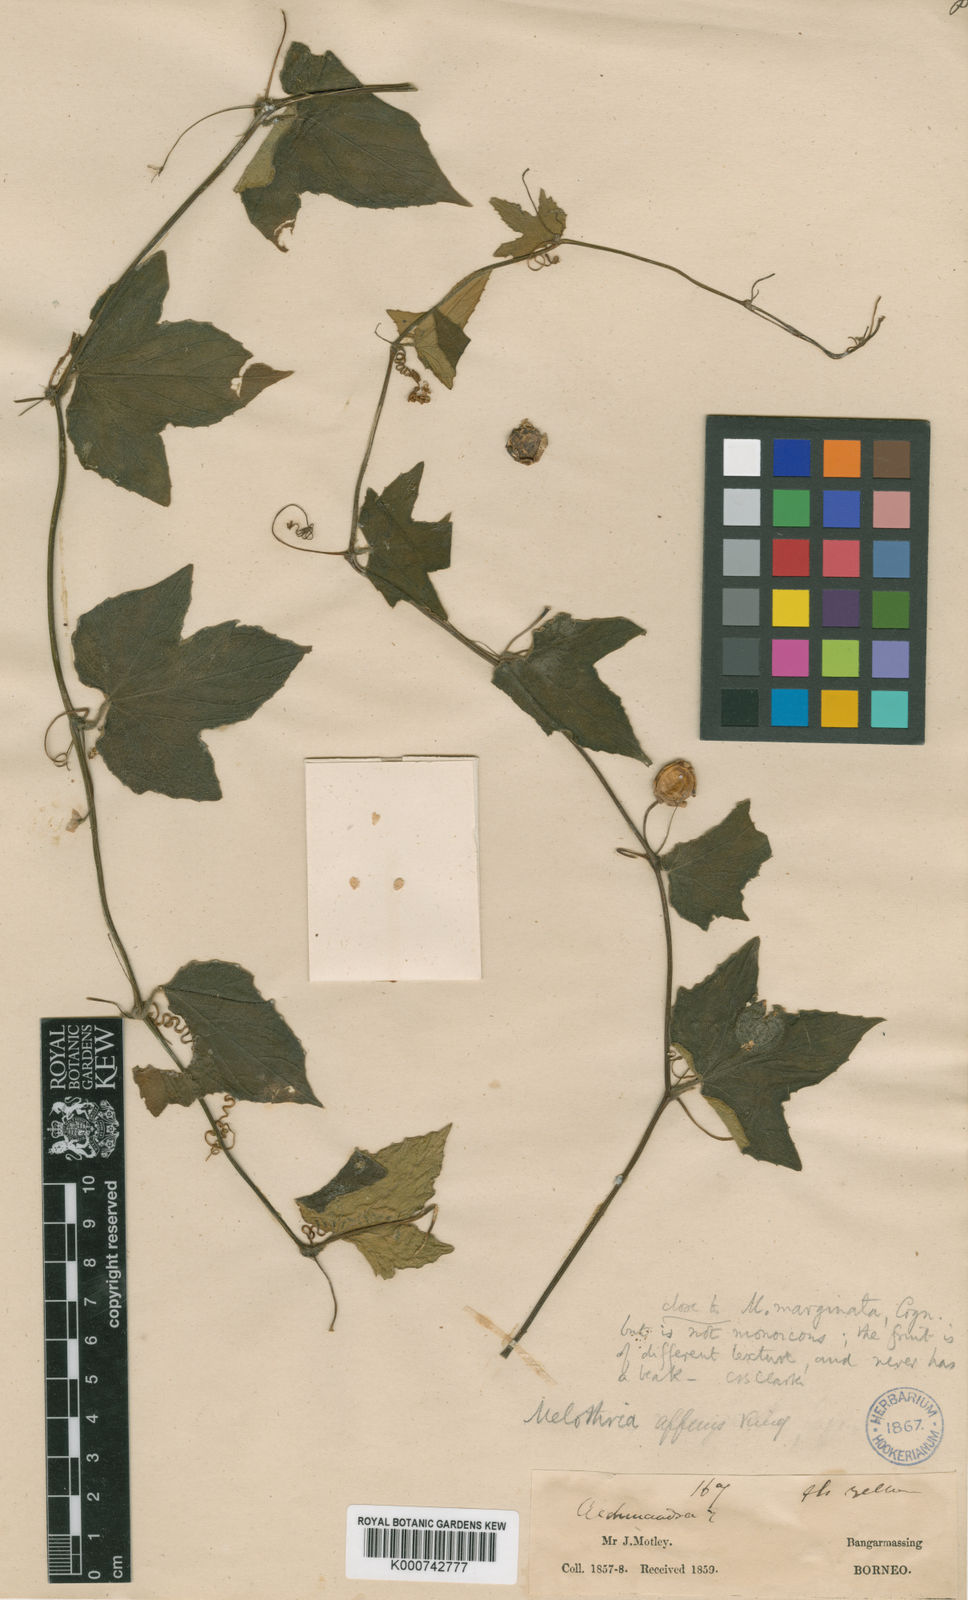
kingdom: Plantae
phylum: Tracheophyta
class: Magnoliopsida
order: Cucurbitales
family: Cucurbitaceae
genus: Scopellaria
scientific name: Scopellaria marginata
